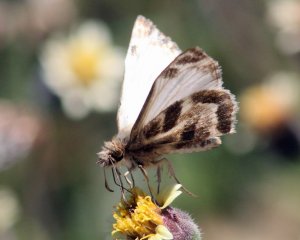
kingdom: Animalia
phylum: Arthropoda
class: Insecta
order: Lepidoptera
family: Hesperiidae
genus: Heliopetes
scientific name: Heliopetes macaira
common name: Turk's-cap White-Skipper
